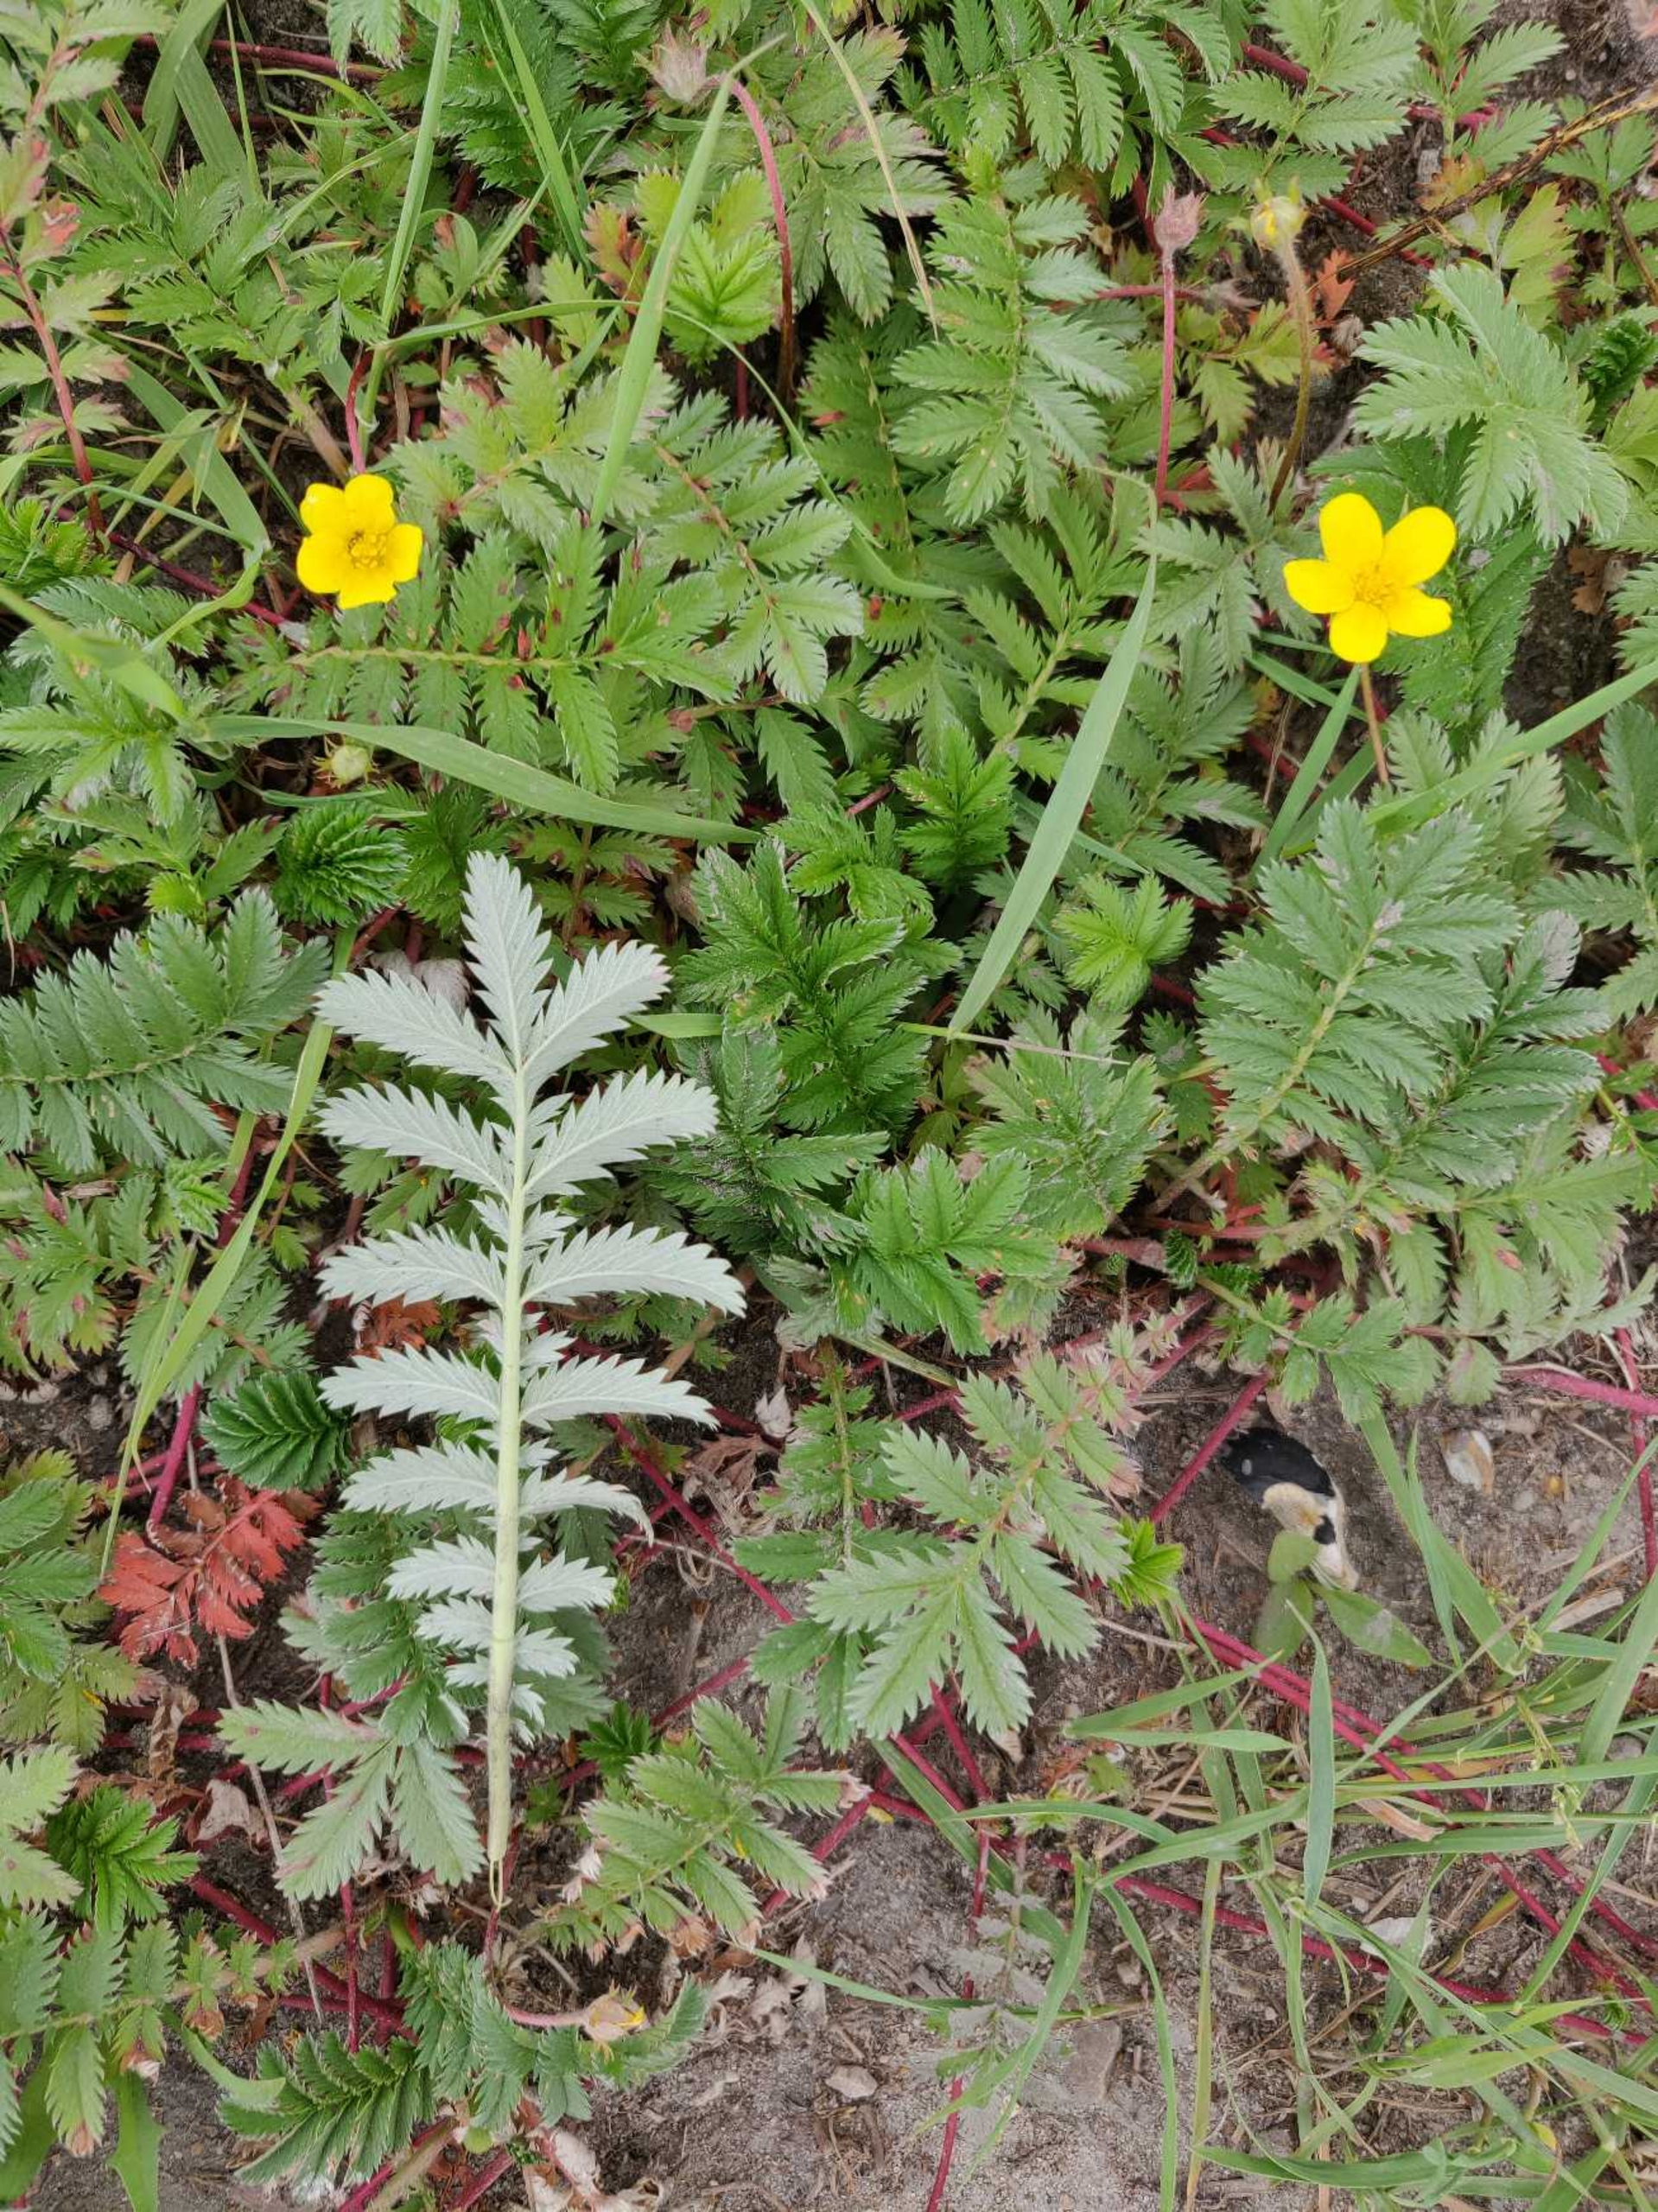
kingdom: Plantae
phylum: Tracheophyta
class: Magnoliopsida
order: Rosales
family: Rosaceae
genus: Argentina
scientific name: Argentina anserina
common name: Gåsepotentil
